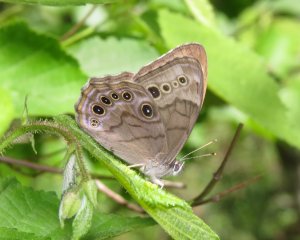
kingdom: Animalia
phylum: Arthropoda
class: Insecta
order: Lepidoptera
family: Nymphalidae
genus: Lethe
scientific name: Lethe anthedon
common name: Northern Pearly-Eye
